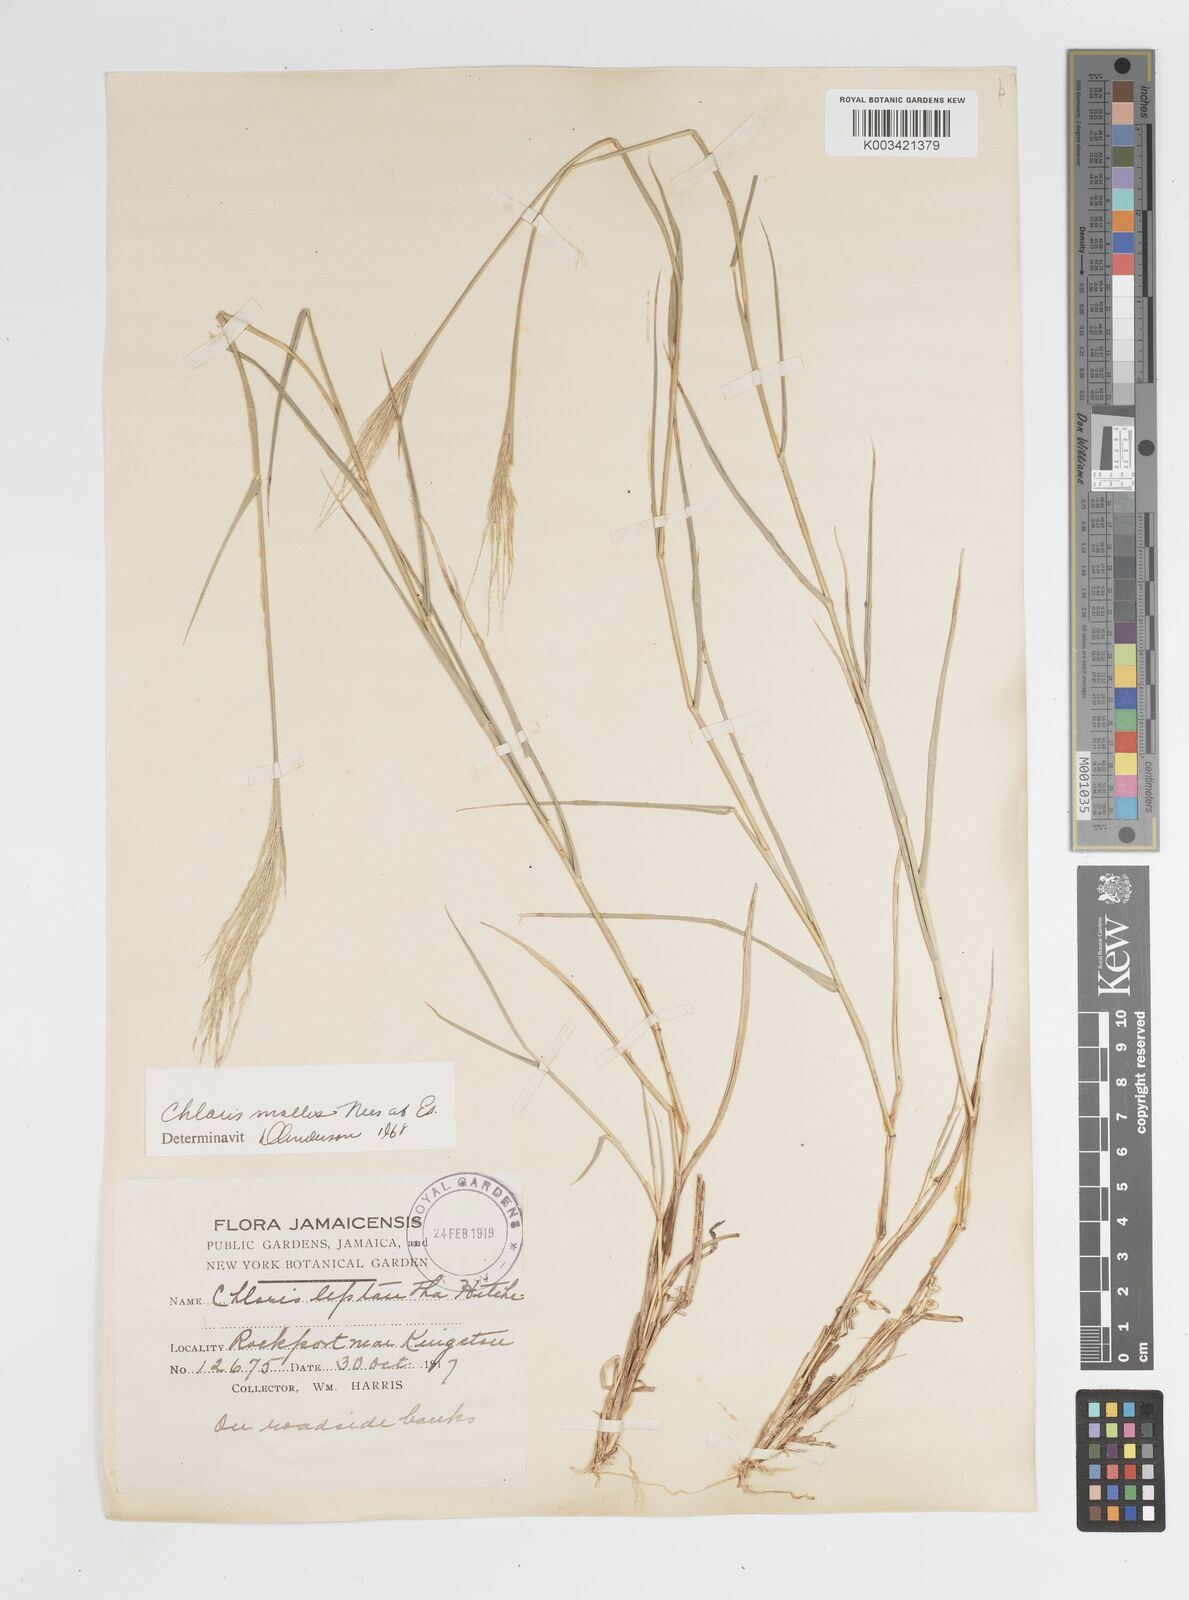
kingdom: Plantae
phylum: Tracheophyta
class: Liliopsida
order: Poales
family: Poaceae
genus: Leptochloa
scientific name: Leptochloa anisopoda
